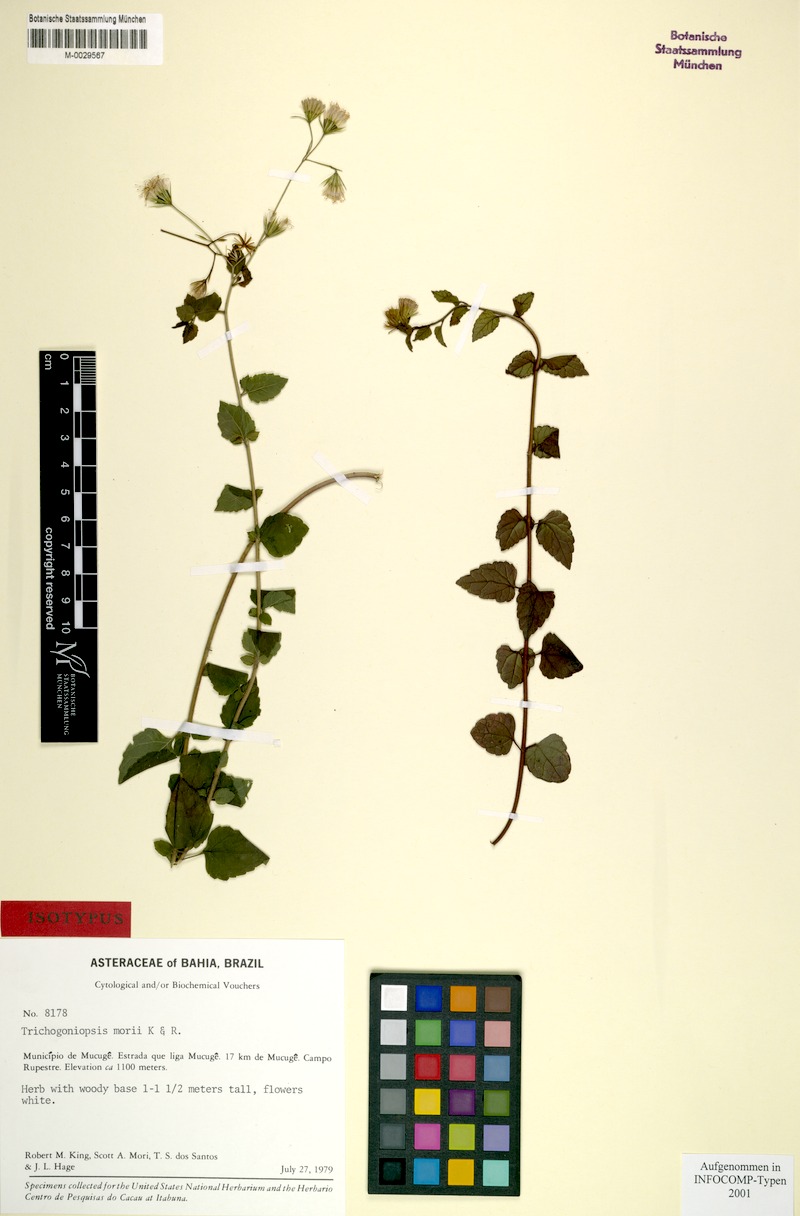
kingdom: Plantae
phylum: Tracheophyta
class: Magnoliopsida
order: Asterales
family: Asteraceae
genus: Trichogoniopsis
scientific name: Trichogoniopsis morii
